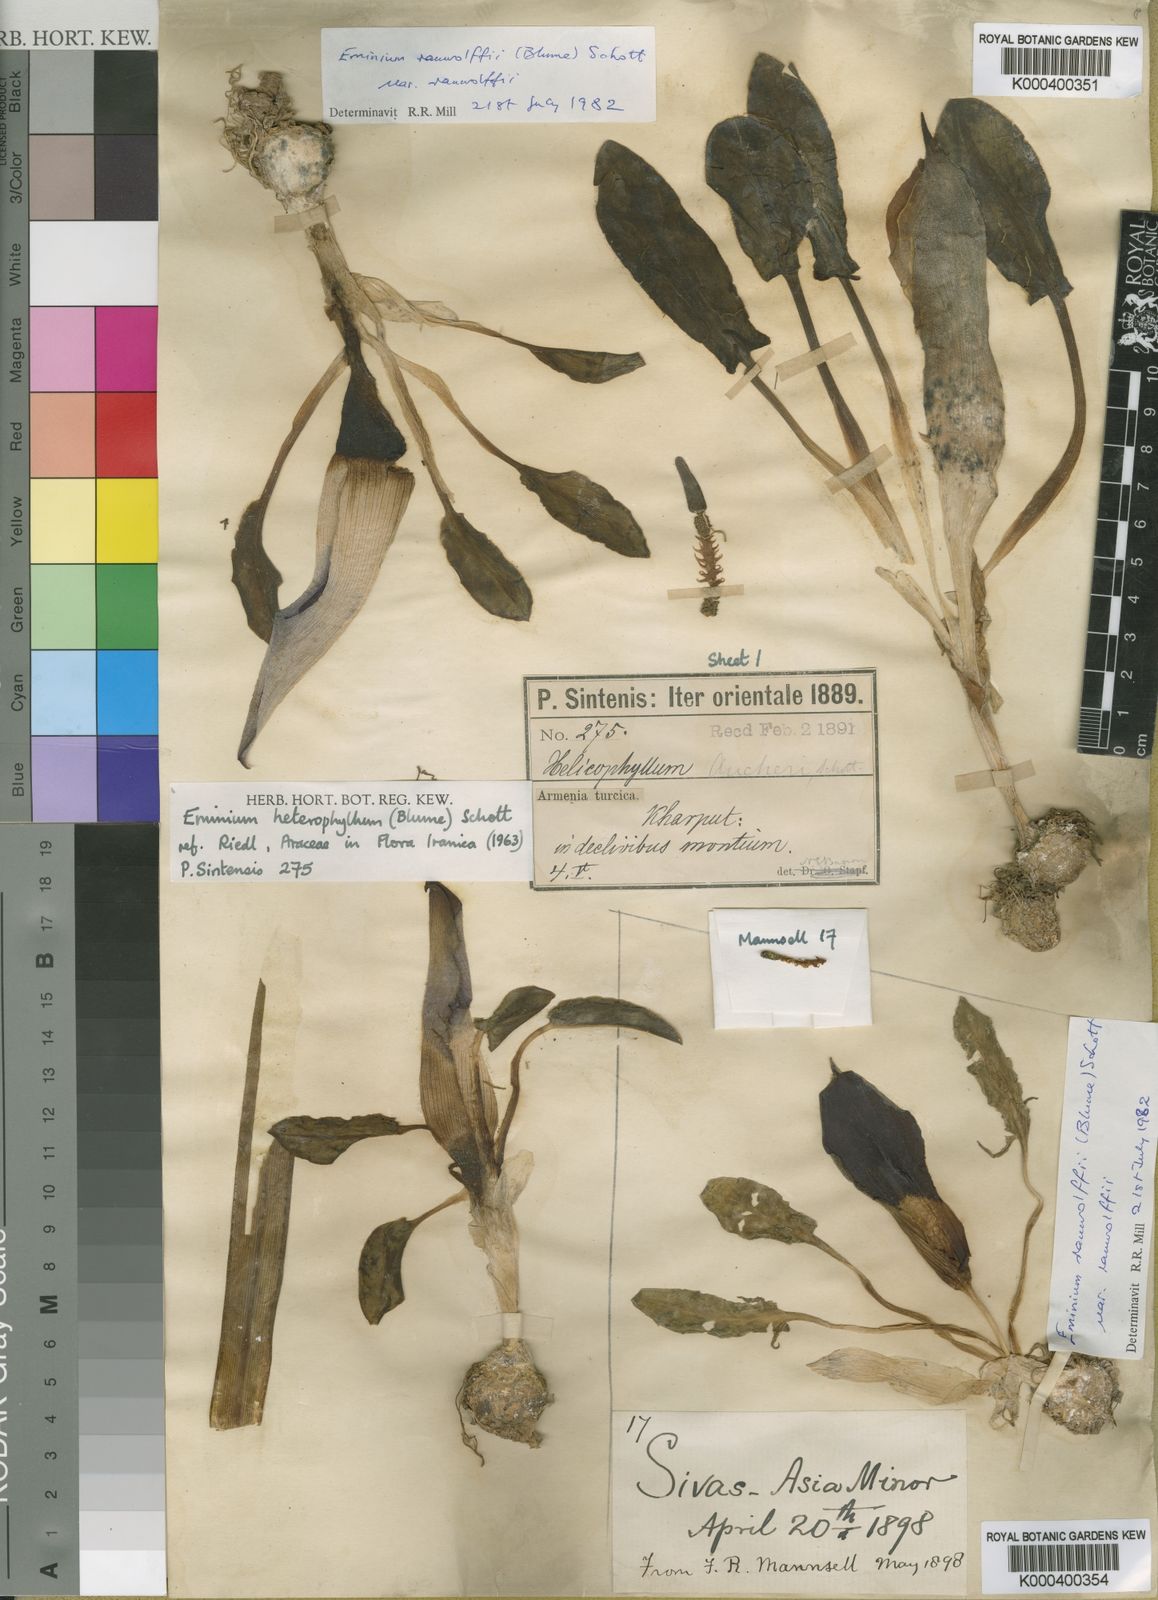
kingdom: Plantae
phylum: Tracheophyta
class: Liliopsida
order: Alismatales
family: Araceae
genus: Eminium
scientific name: Eminium rauwolffii
